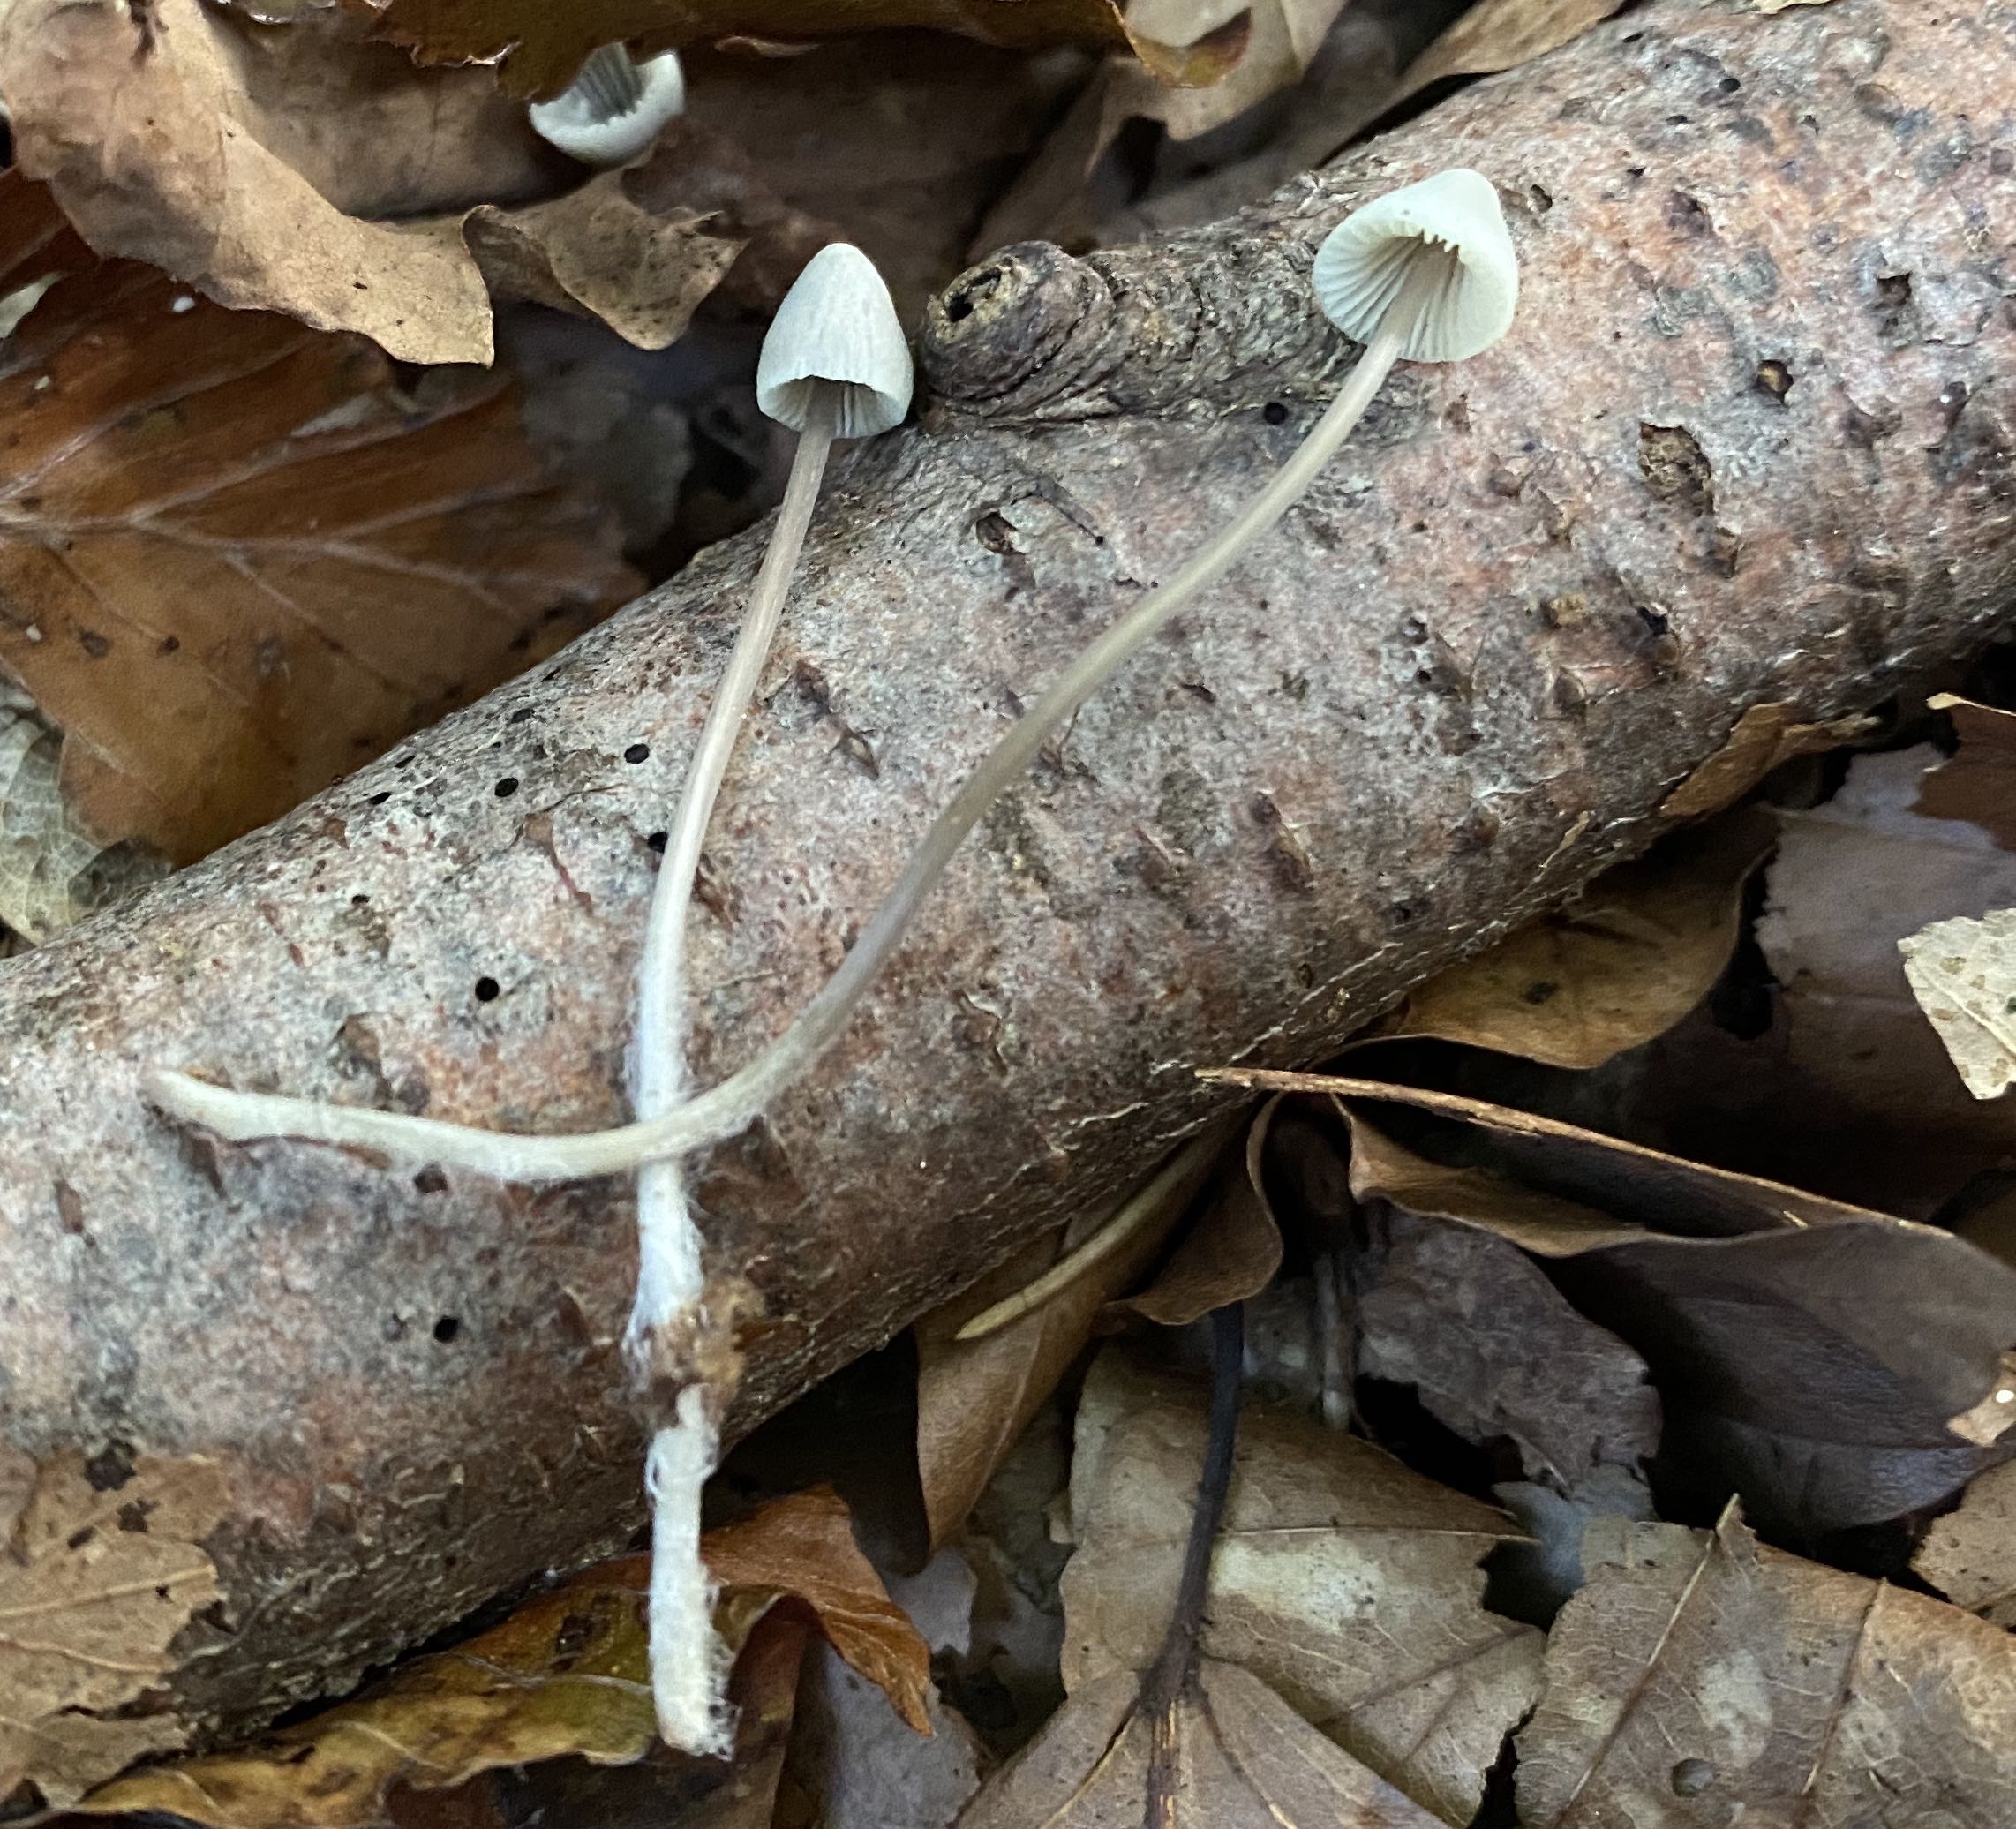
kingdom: Fungi
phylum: Basidiomycota
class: Agaricomycetes
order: Agaricales
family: Mycenaceae
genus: Mycena
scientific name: Mycena flavescens
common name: grågul huesvamp
